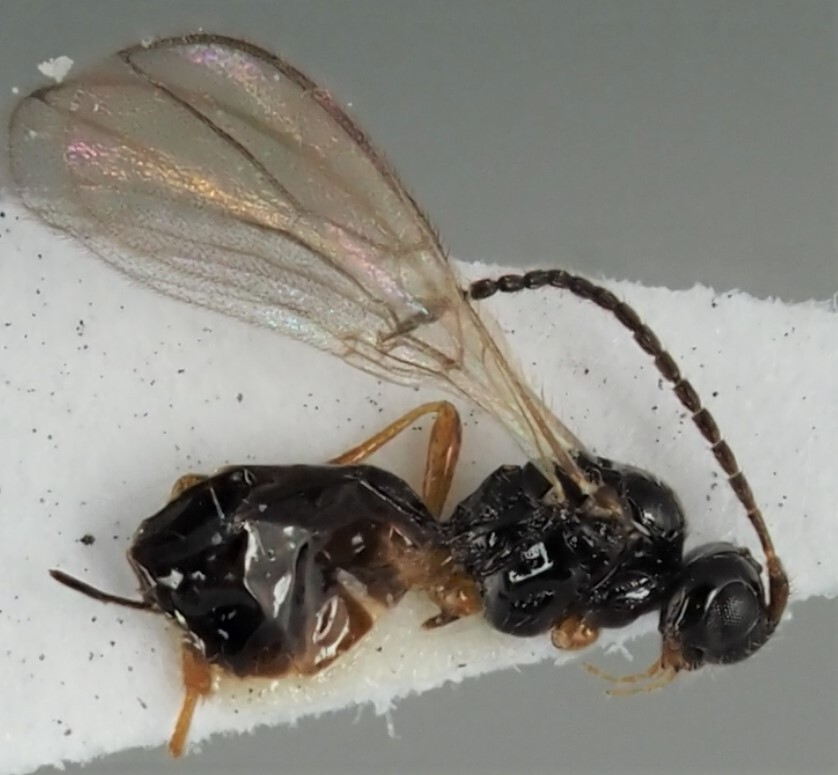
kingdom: Animalia
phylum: Arthropoda
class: Insecta
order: Hymenoptera
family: Braconidae
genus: Dinotrema
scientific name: Dinotrema falsificum
